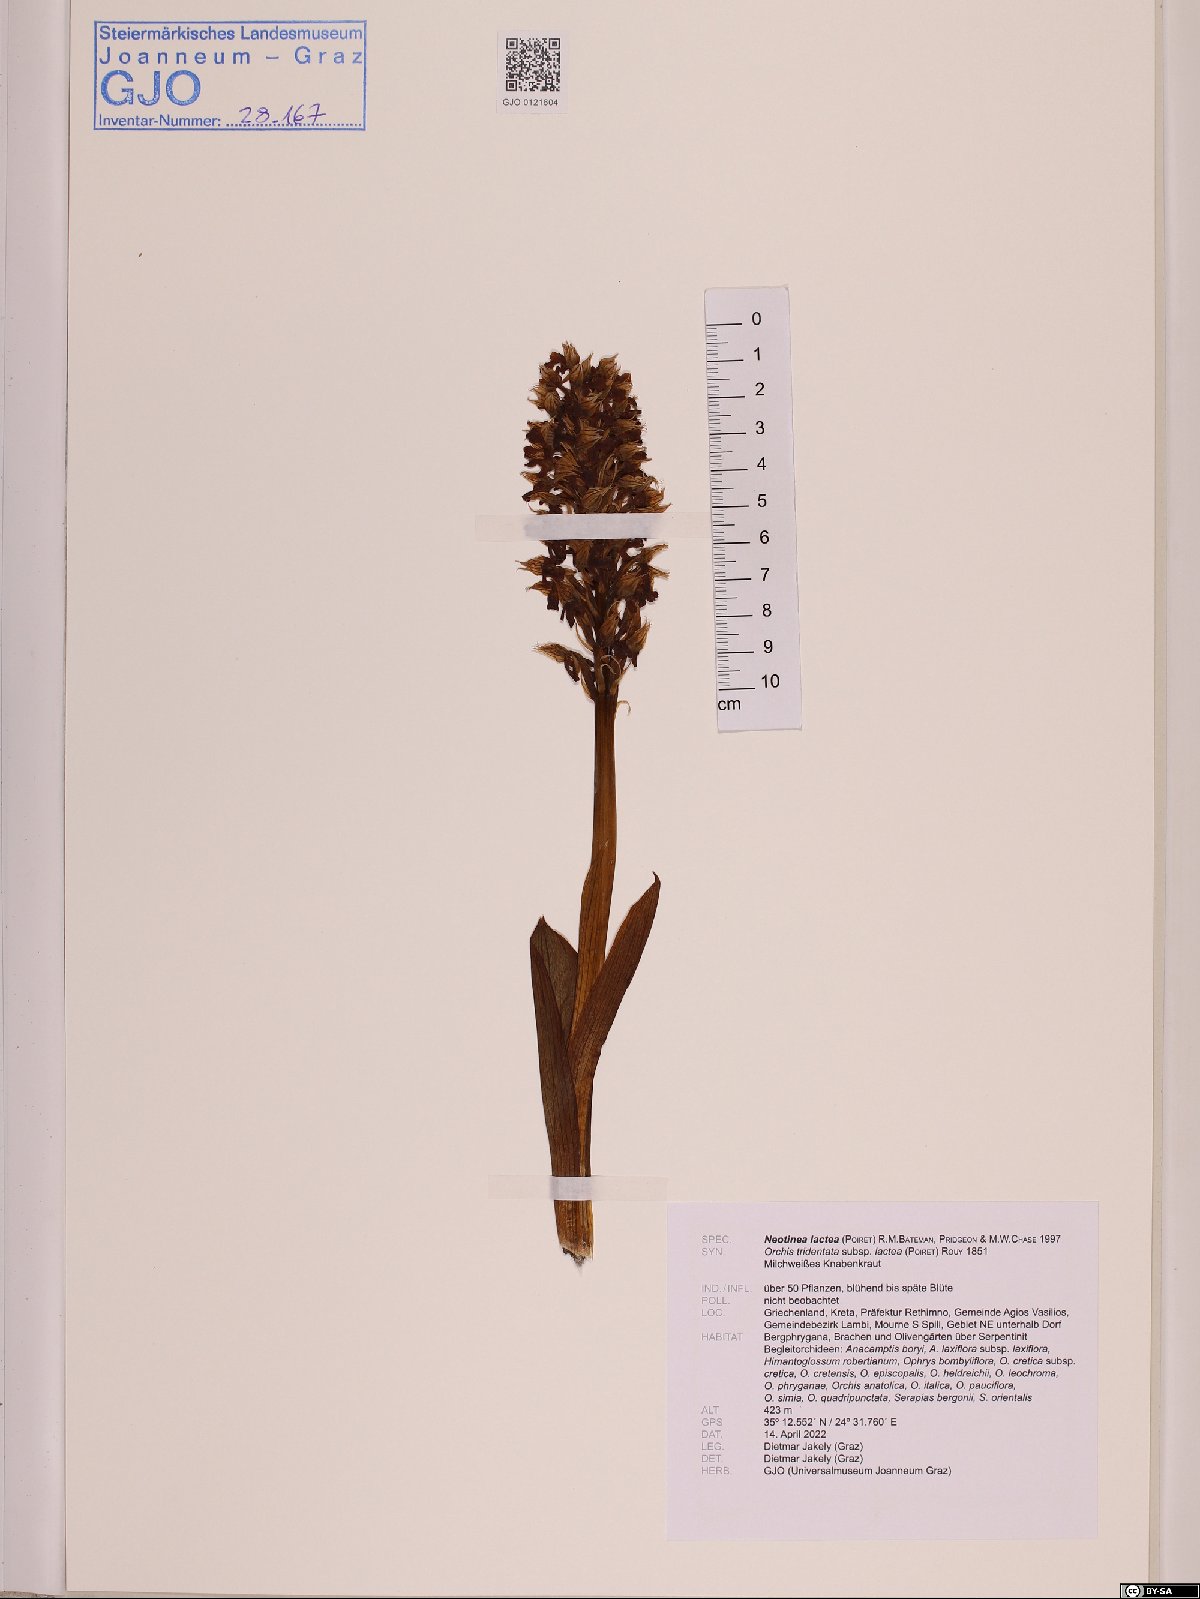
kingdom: Plantae
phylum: Tracheophyta
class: Liliopsida
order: Asparagales
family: Orchidaceae
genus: Neotinea
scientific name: Neotinea lactea
